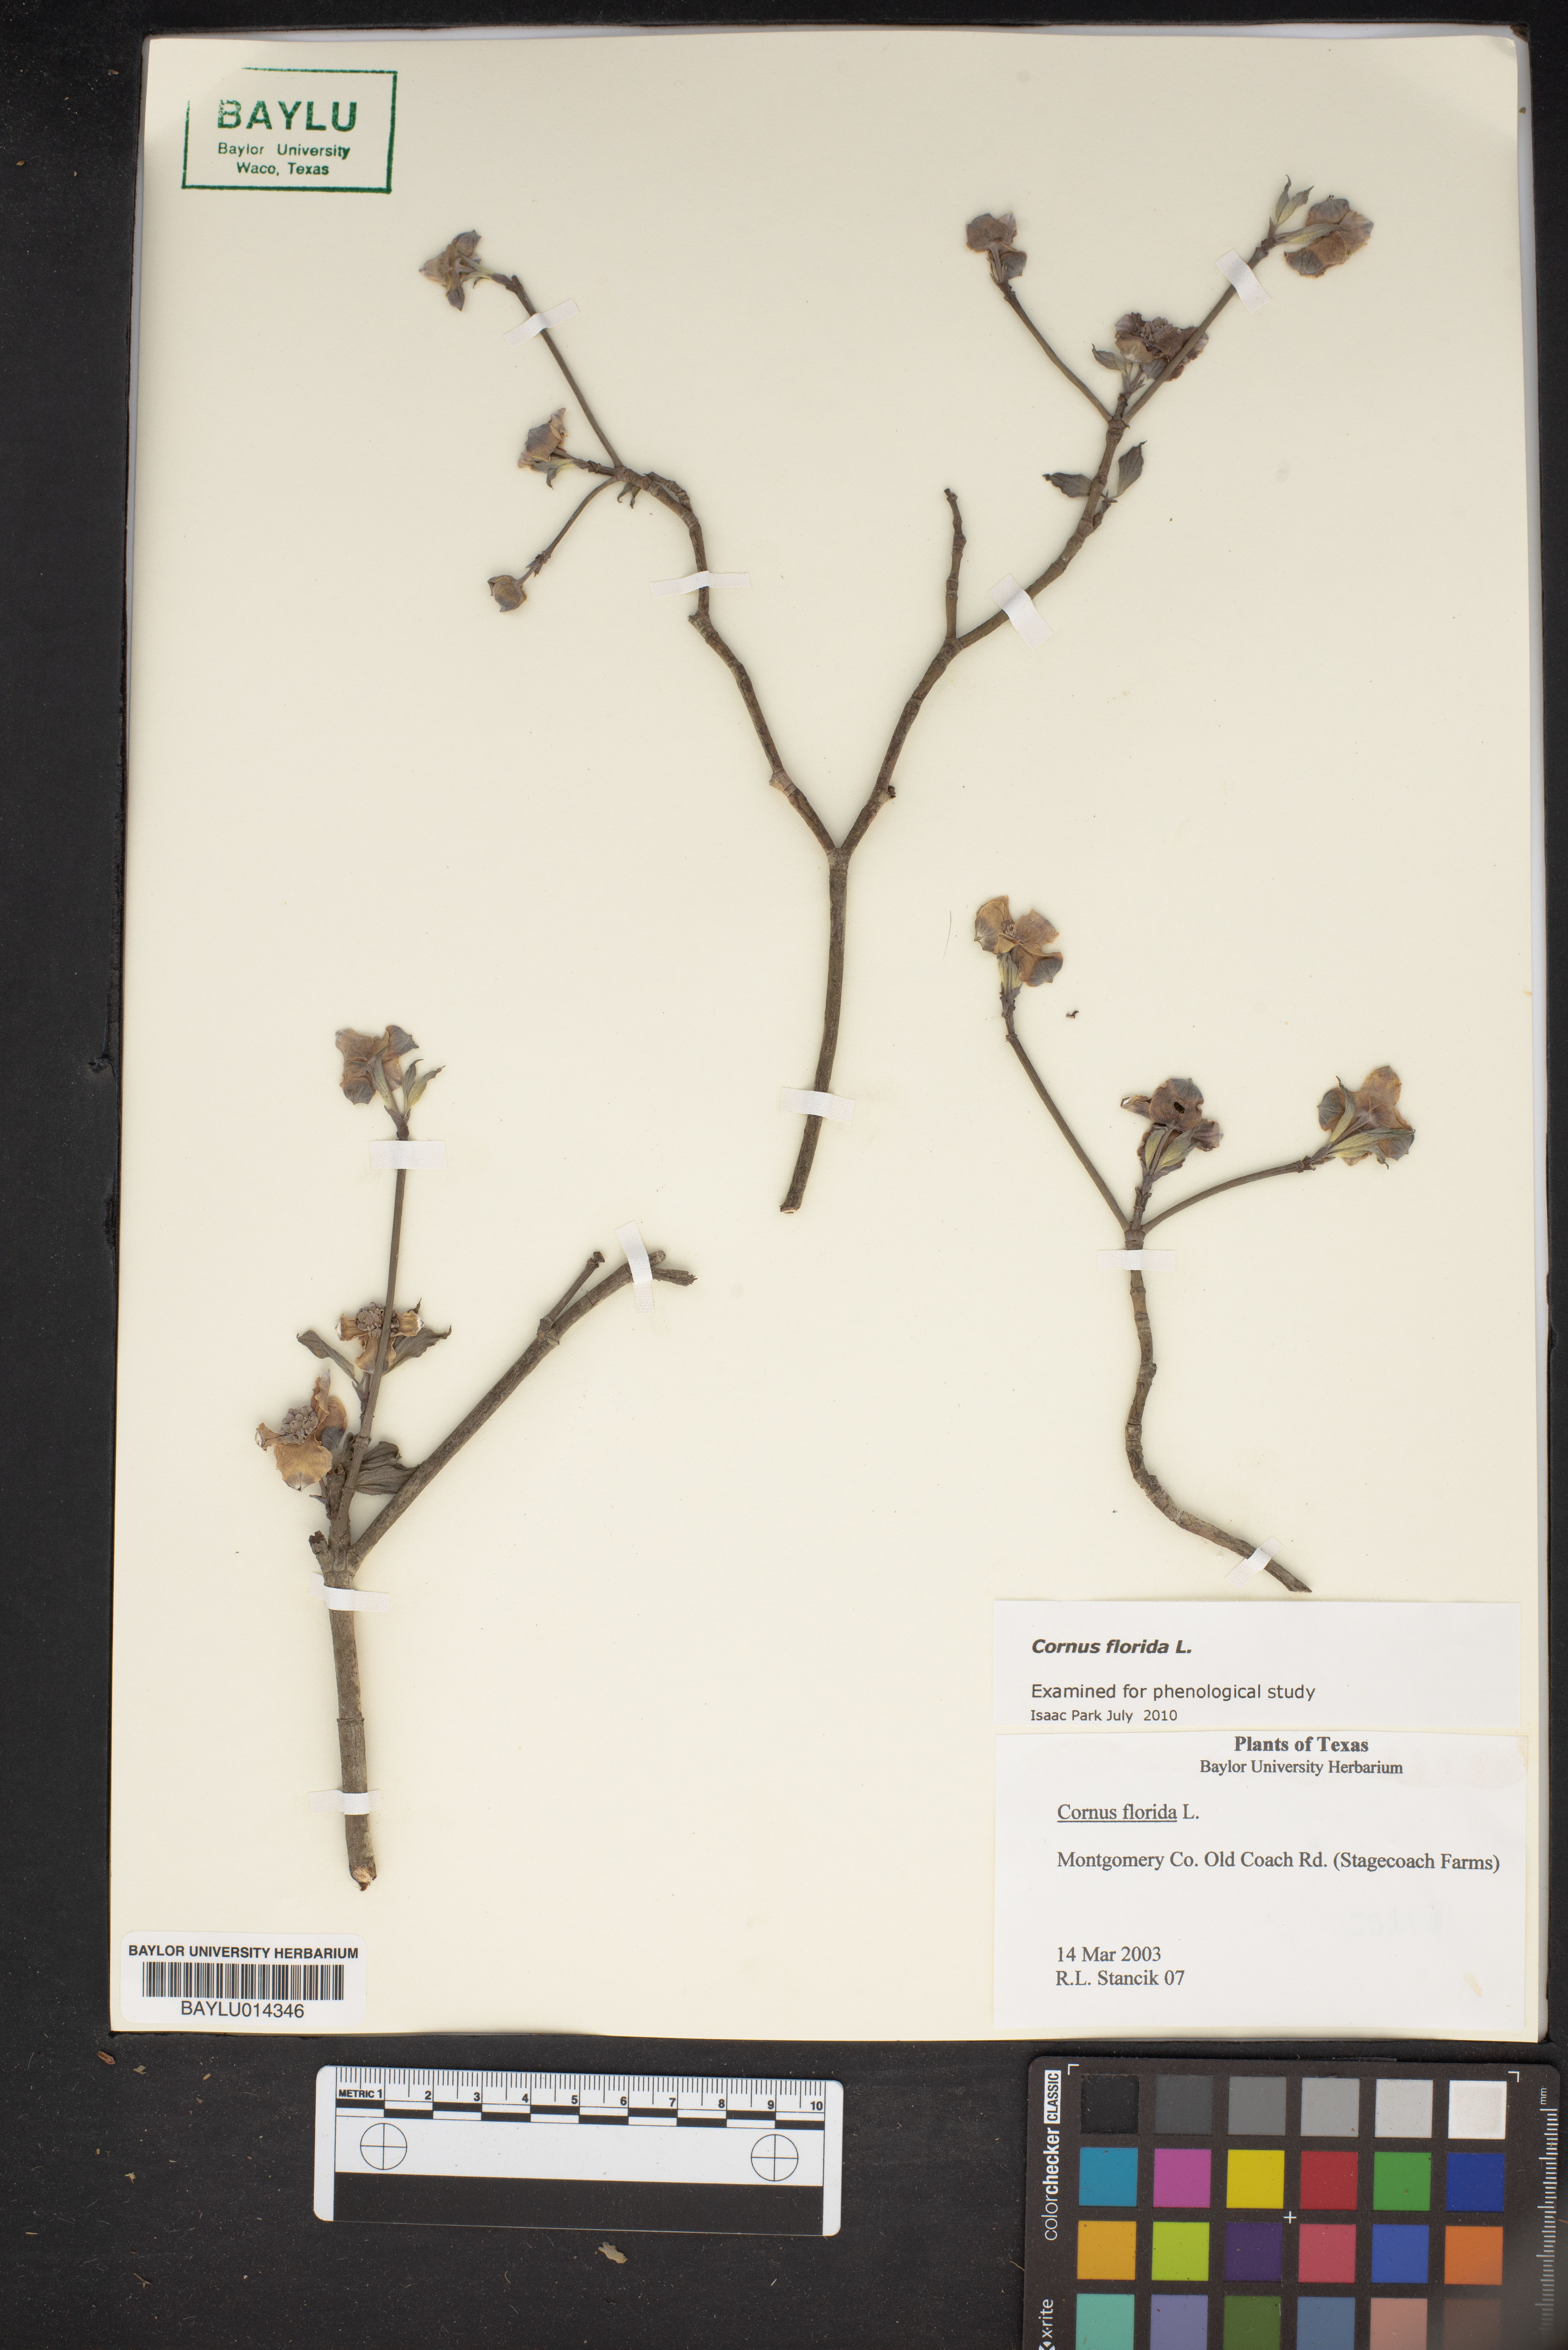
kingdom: Plantae
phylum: Tracheophyta
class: Magnoliopsida
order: Cornales
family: Cornaceae
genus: Cornus
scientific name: Cornus florida
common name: Flowering dogwood
